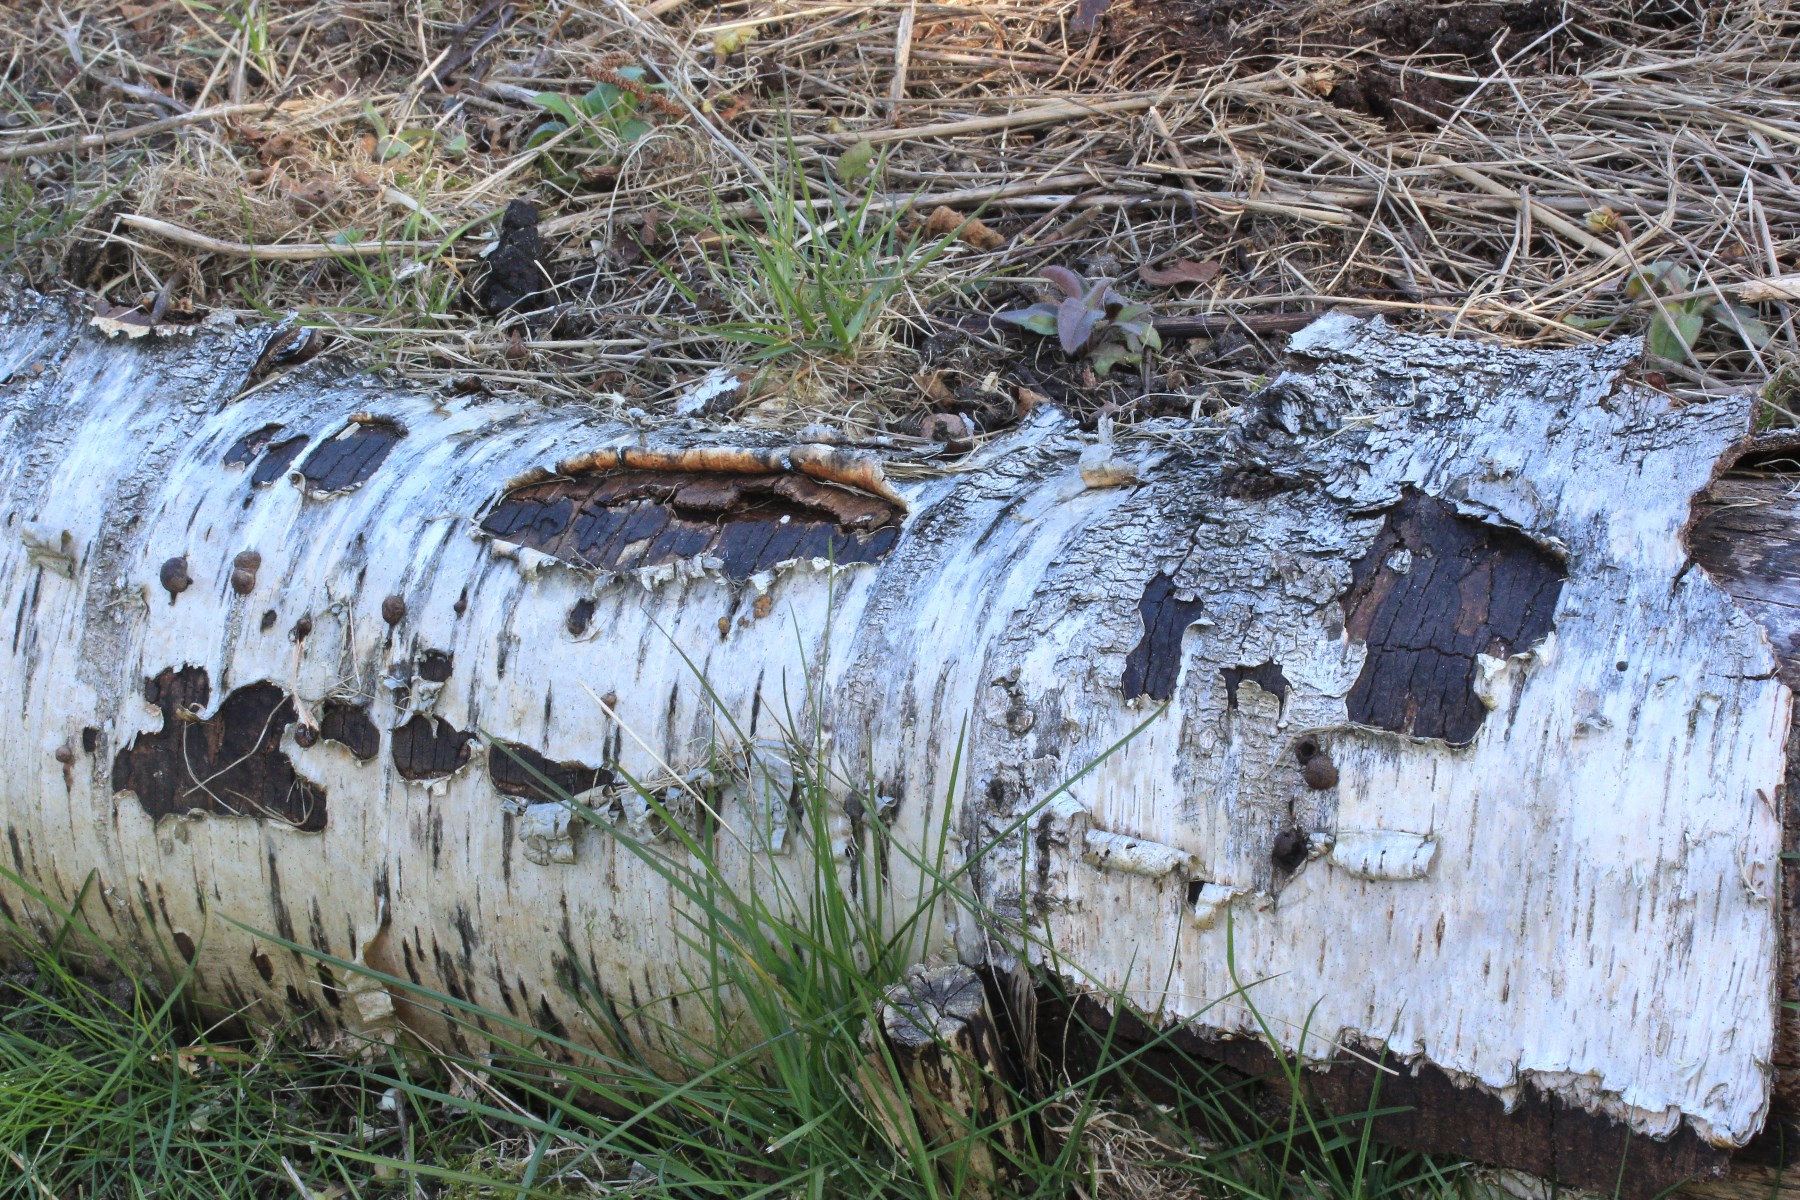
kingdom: Fungi
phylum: Ascomycota
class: Sordariomycetes
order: Xylariales
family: Diatrypaceae
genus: Diatrype
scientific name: Diatrype
